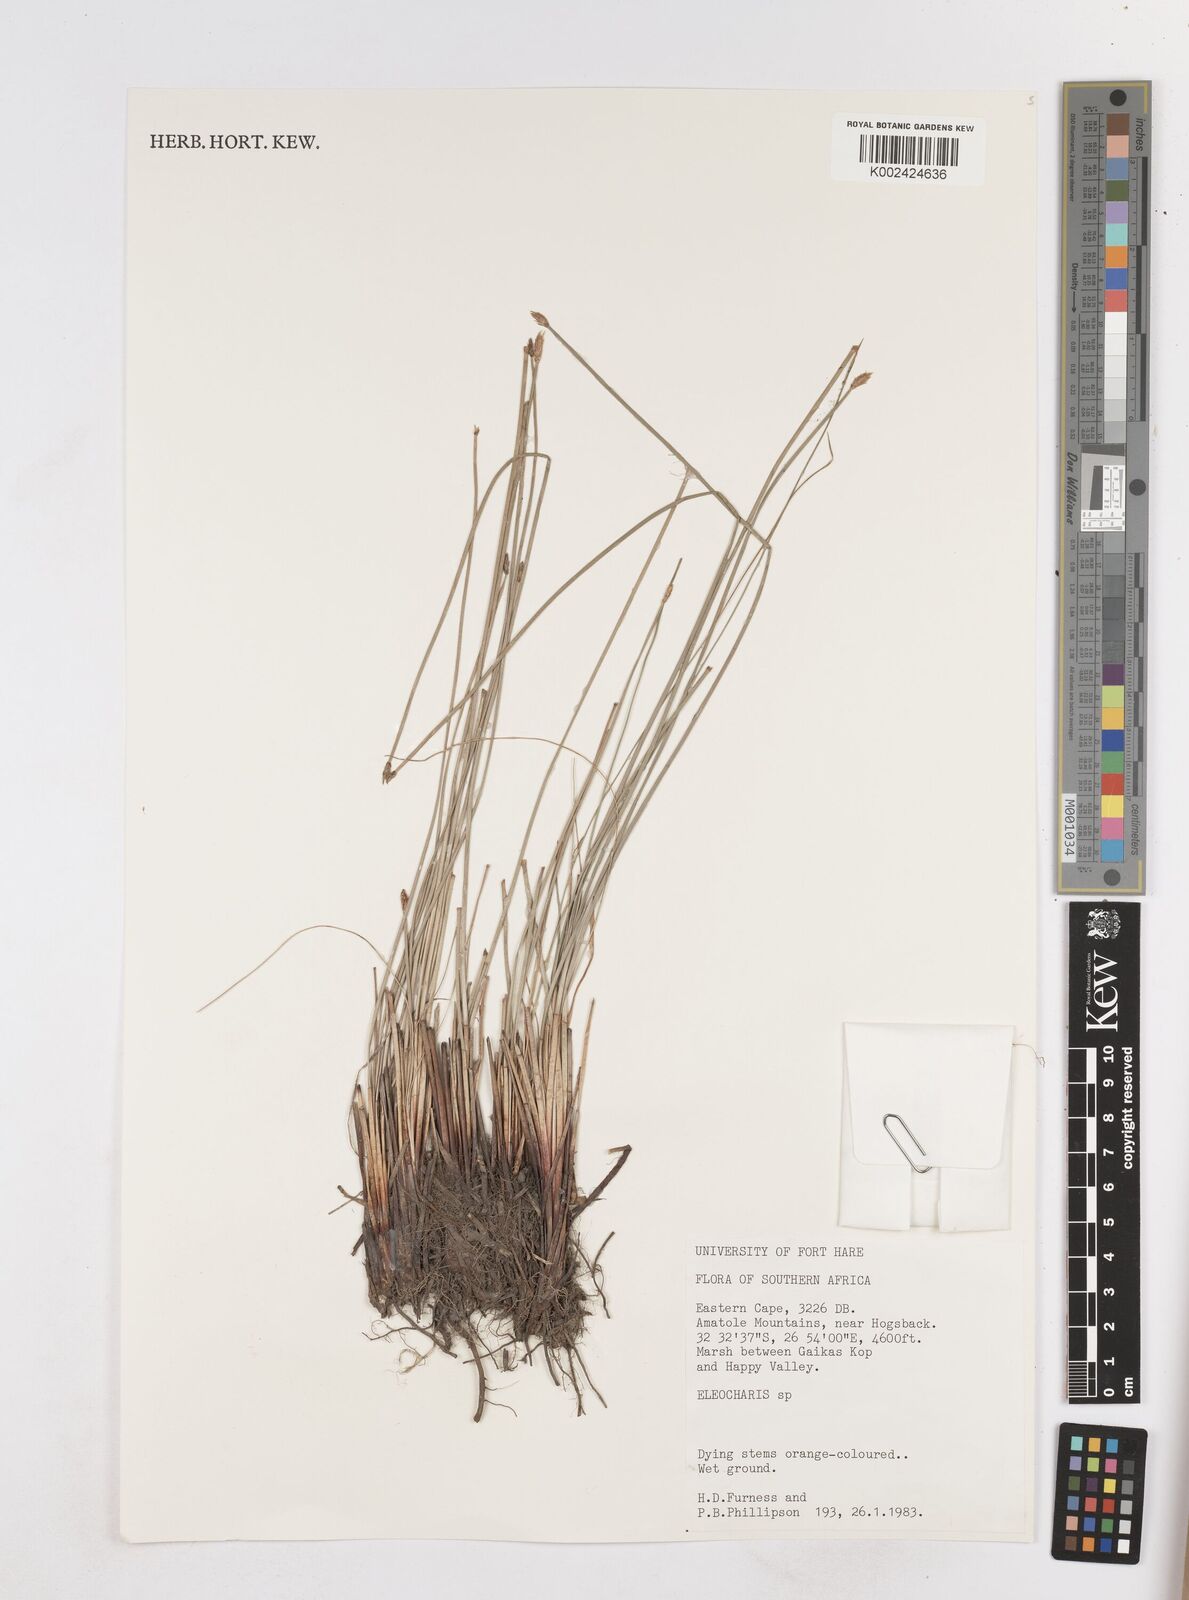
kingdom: Plantae
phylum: Tracheophyta
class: Liliopsida
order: Poales
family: Cyperaceae
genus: Eleocharis
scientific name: Eleocharis
